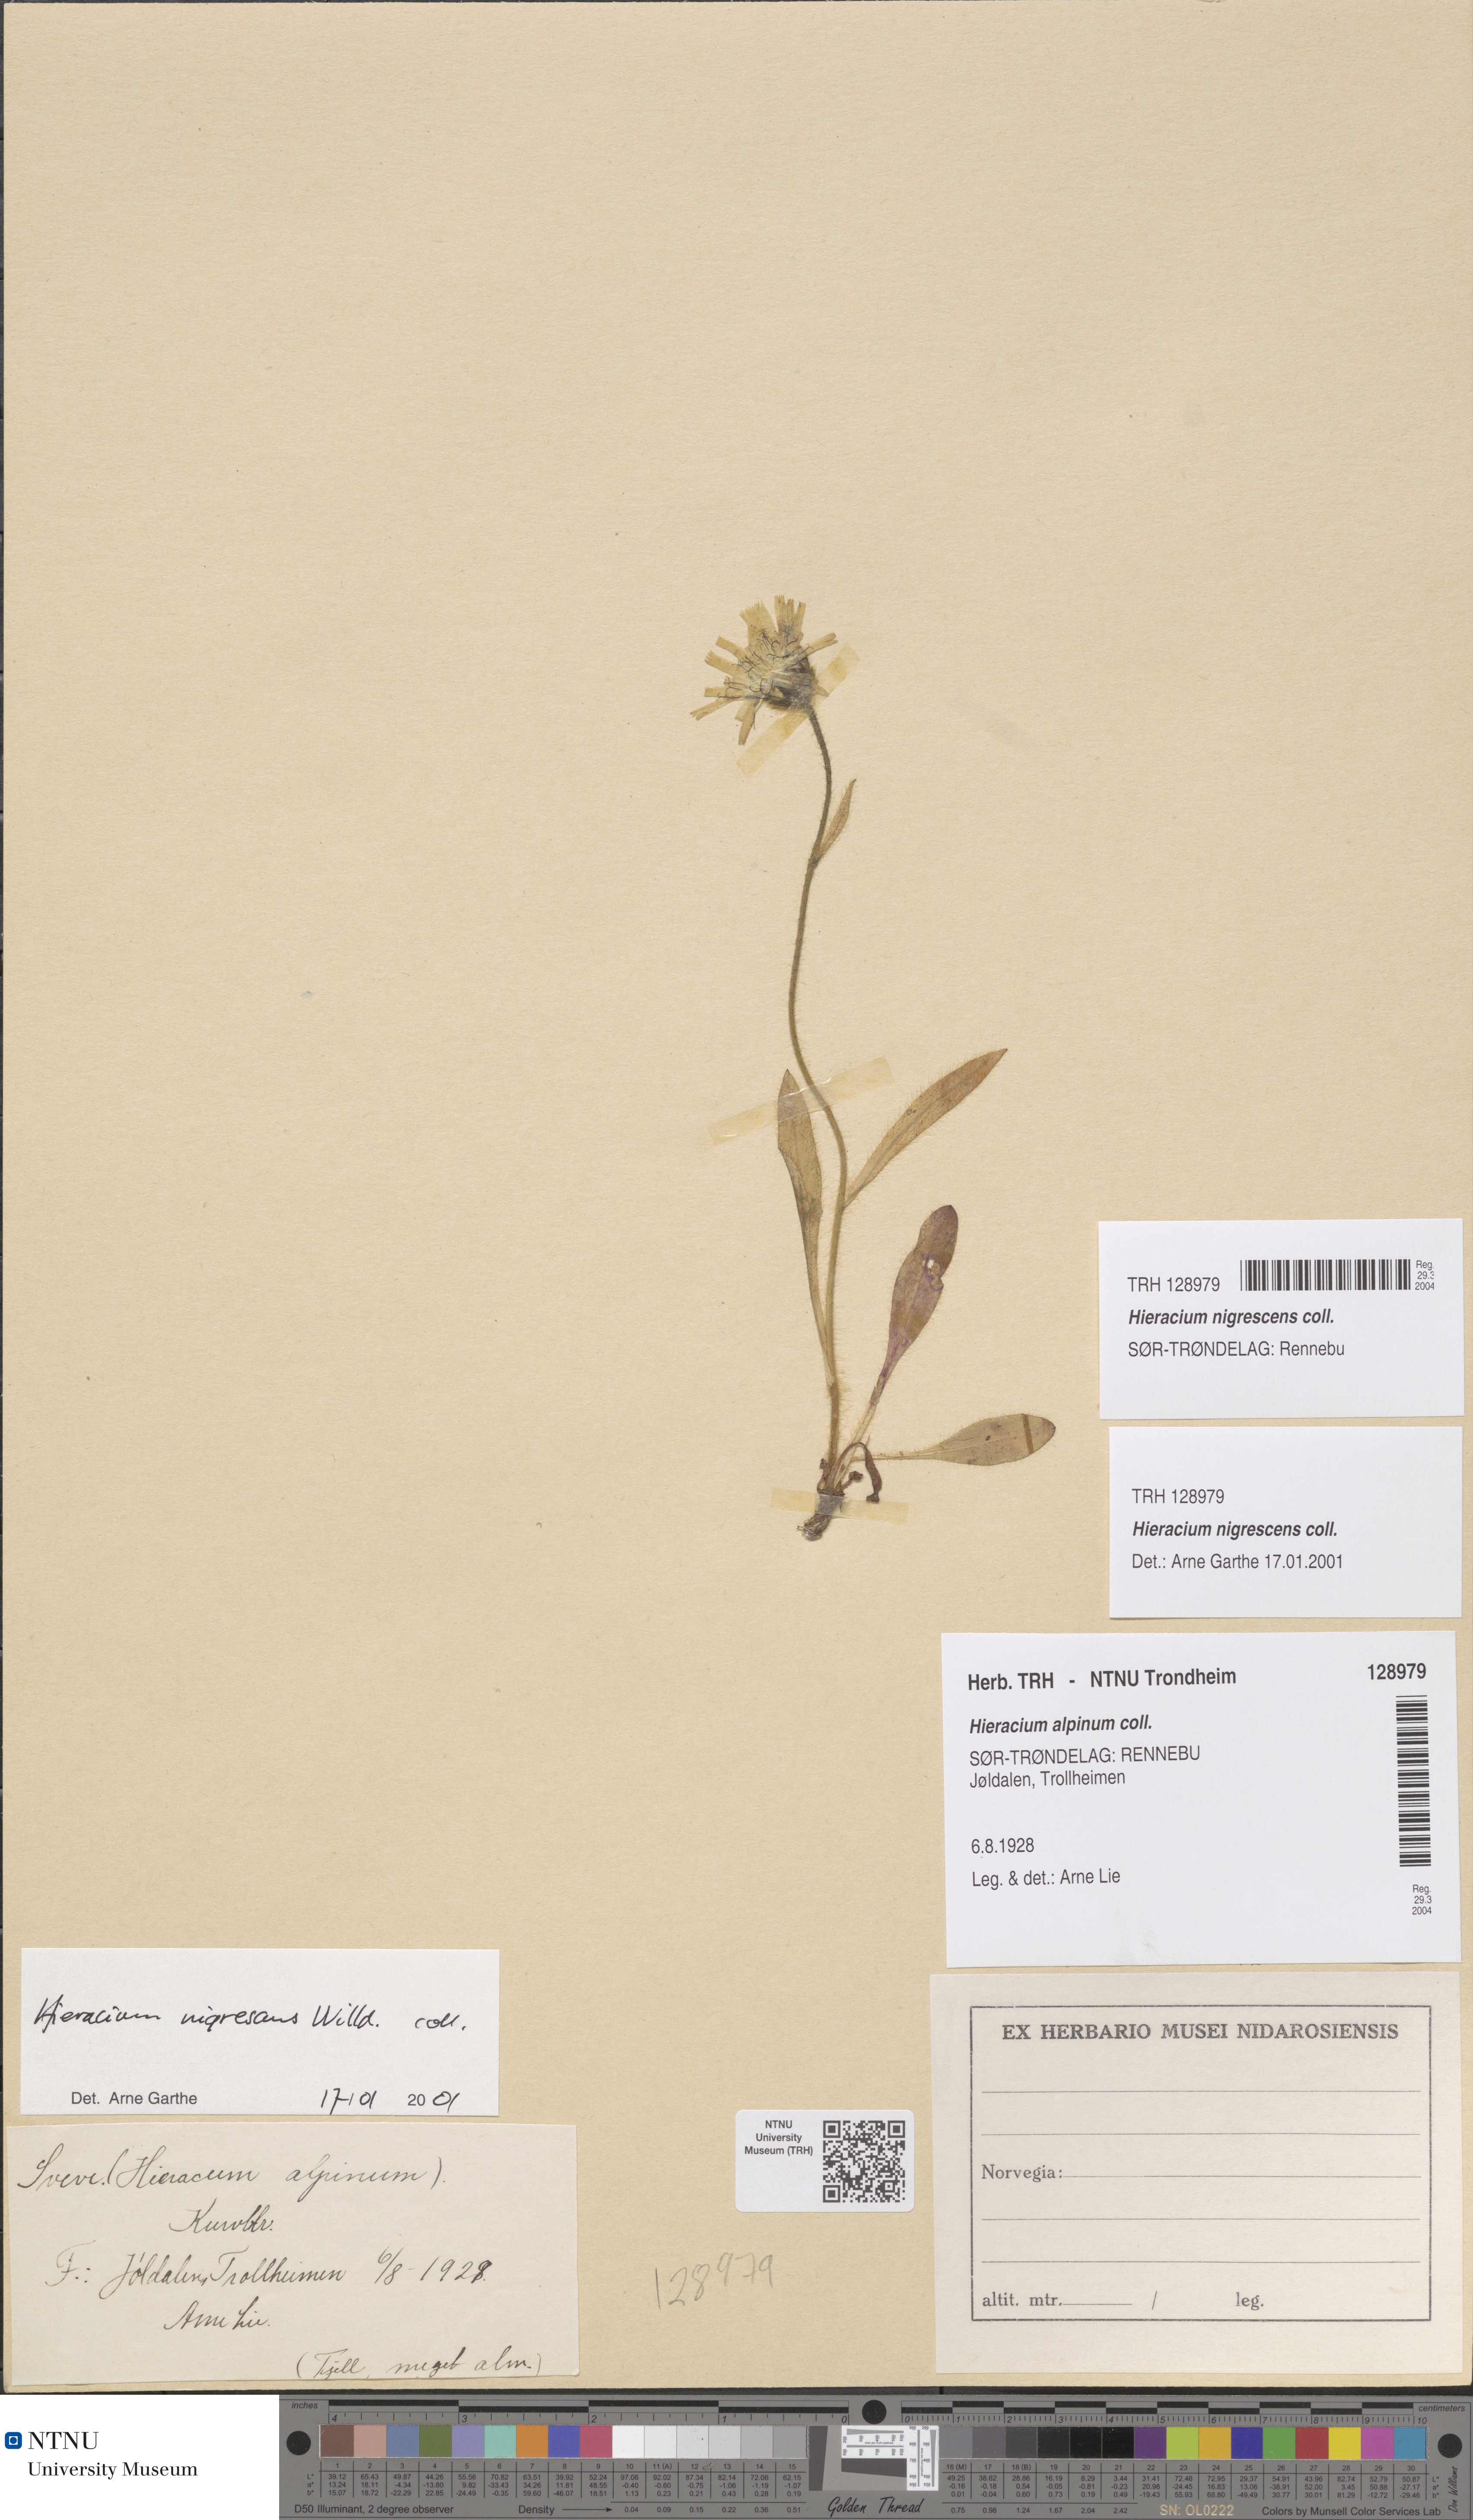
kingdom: Plantae
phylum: Tracheophyta
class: Magnoliopsida
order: Asterales
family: Asteraceae
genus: Hieracium
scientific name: Hieracium nigrescens
